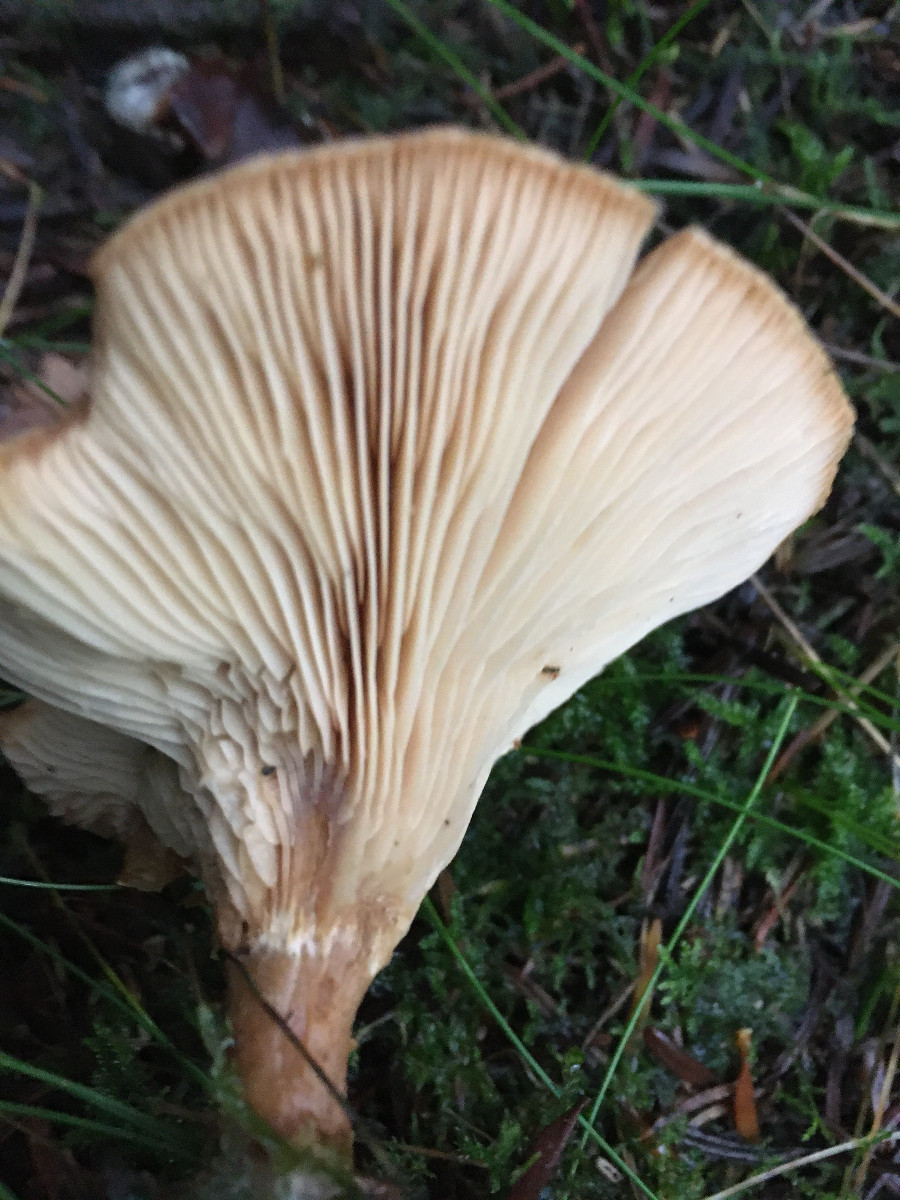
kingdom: Fungi
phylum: Basidiomycota
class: Agaricomycetes
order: Agaricales
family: Tricholomataceae
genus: Paralepista
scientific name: Paralepista flaccida
